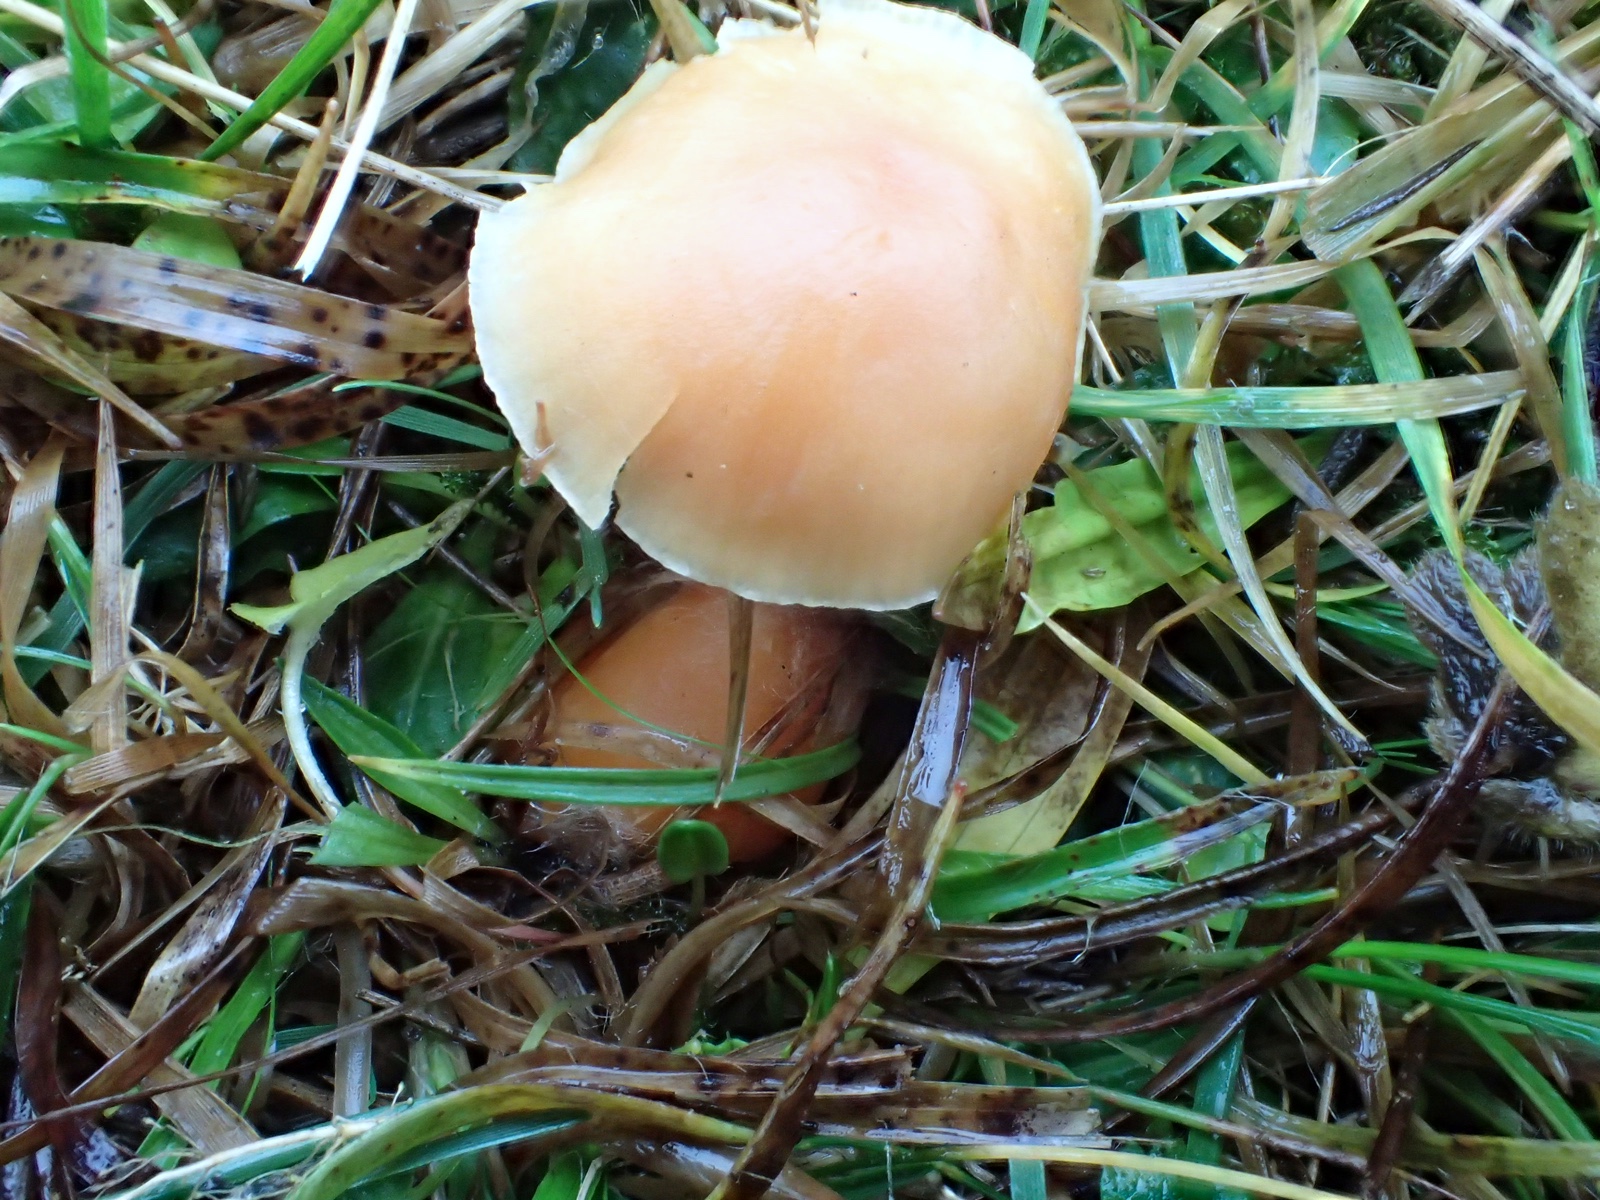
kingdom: Fungi
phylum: Basidiomycota
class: Agaricomycetes
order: Agaricales
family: Hygrophoraceae
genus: Cuphophyllus
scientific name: Cuphophyllus pratensis
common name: eng-vokshat
